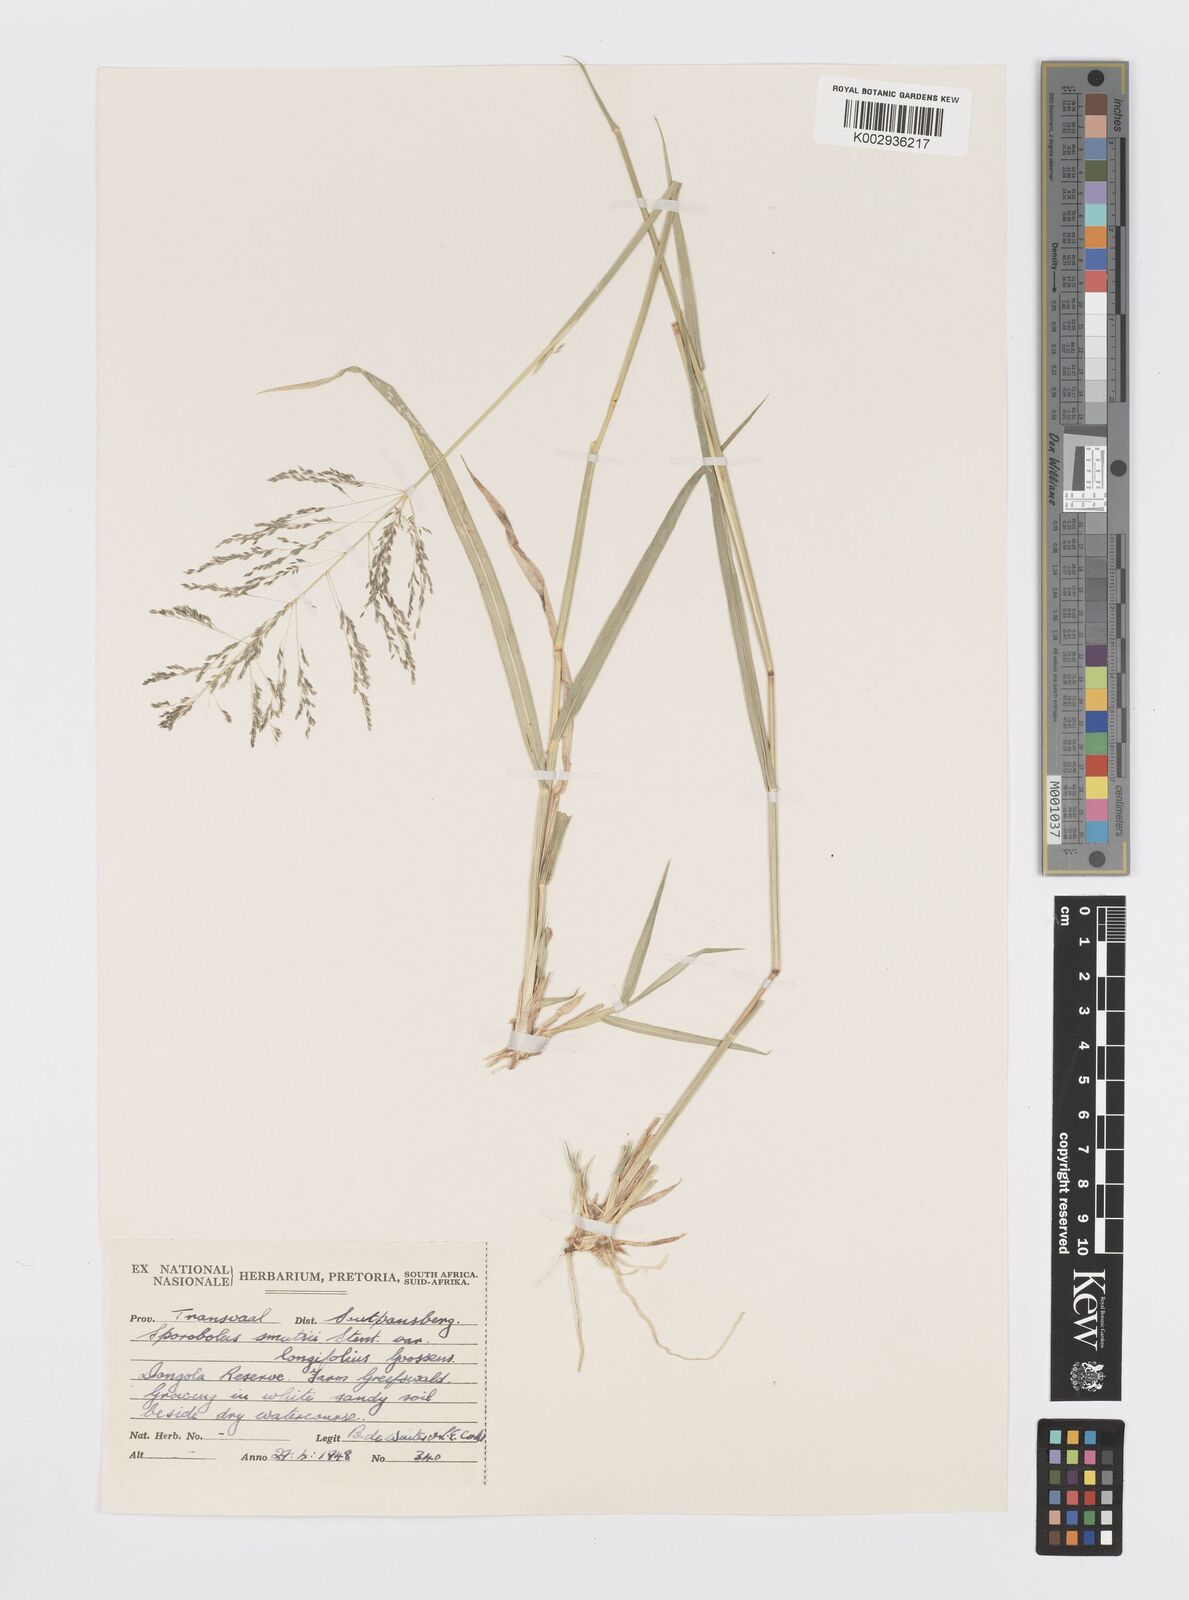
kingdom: Plantae
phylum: Tracheophyta
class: Liliopsida
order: Poales
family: Poaceae
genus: Sporobolus
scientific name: Sporobolus ioclados
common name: Pan dropseed
